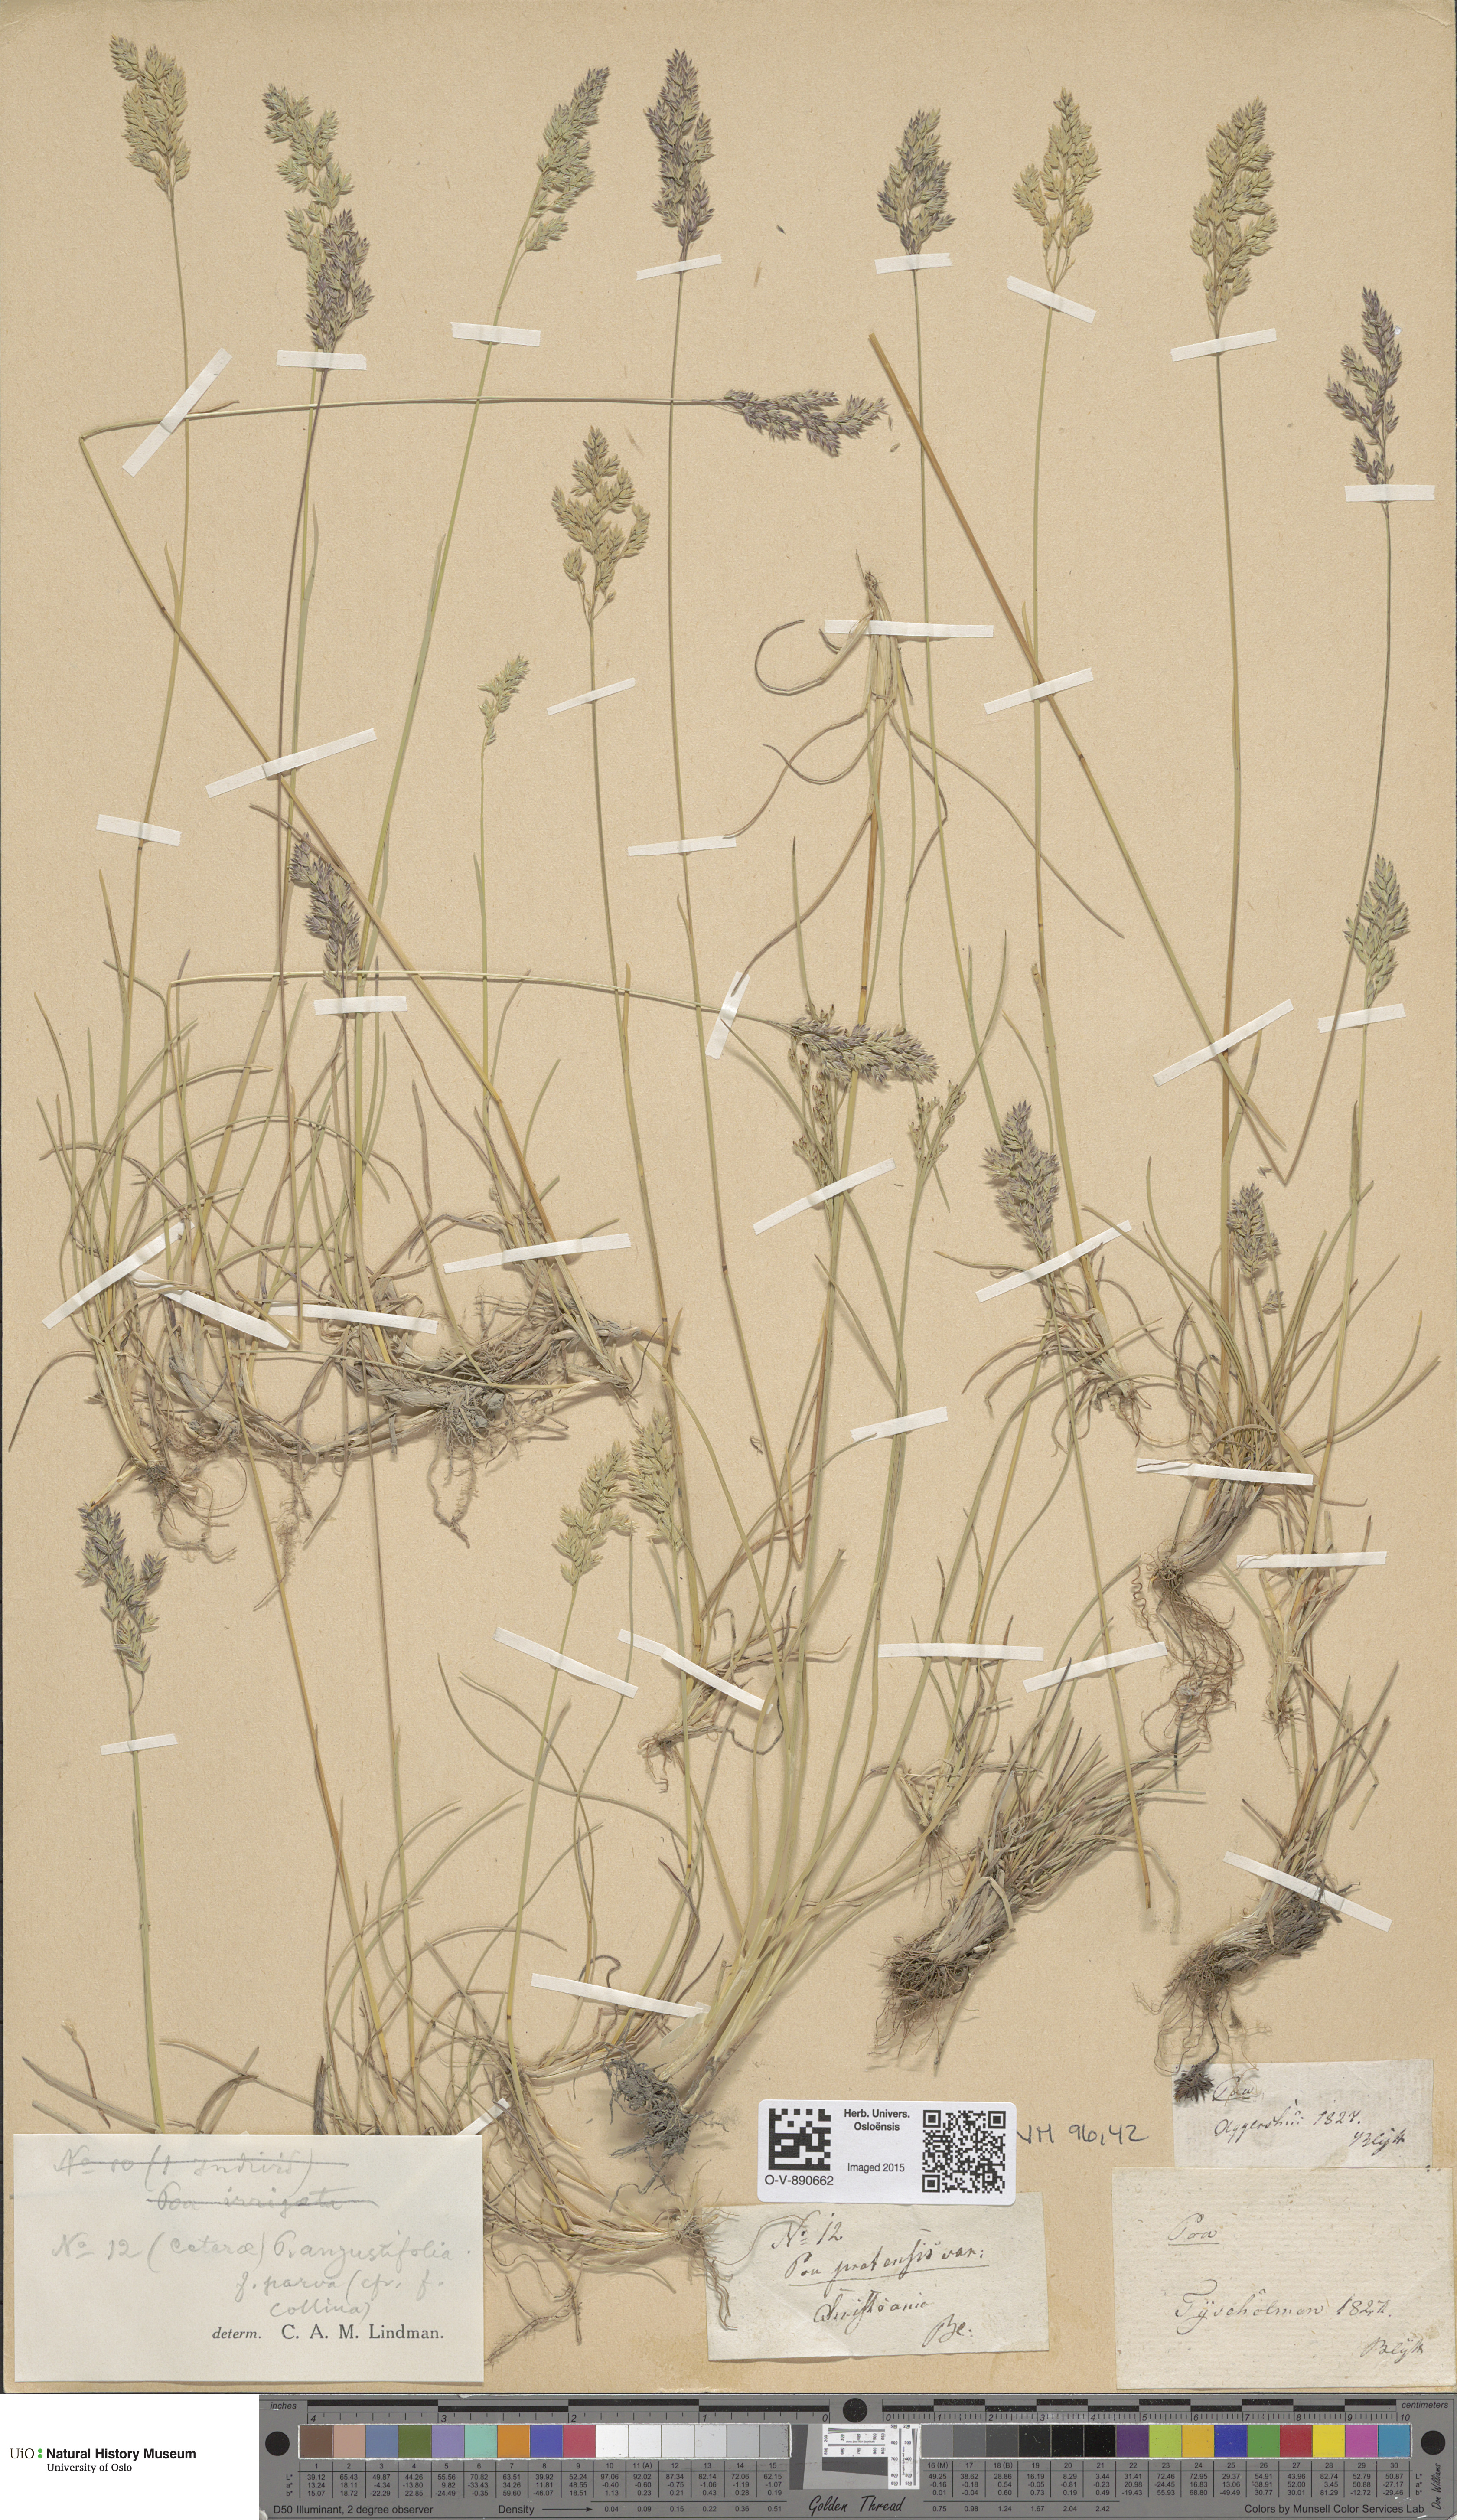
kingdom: Plantae
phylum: Tracheophyta
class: Liliopsida
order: Poales
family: Poaceae
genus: Poa
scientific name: Poa angustifolia
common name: Narrow-leaved meadow-grass
